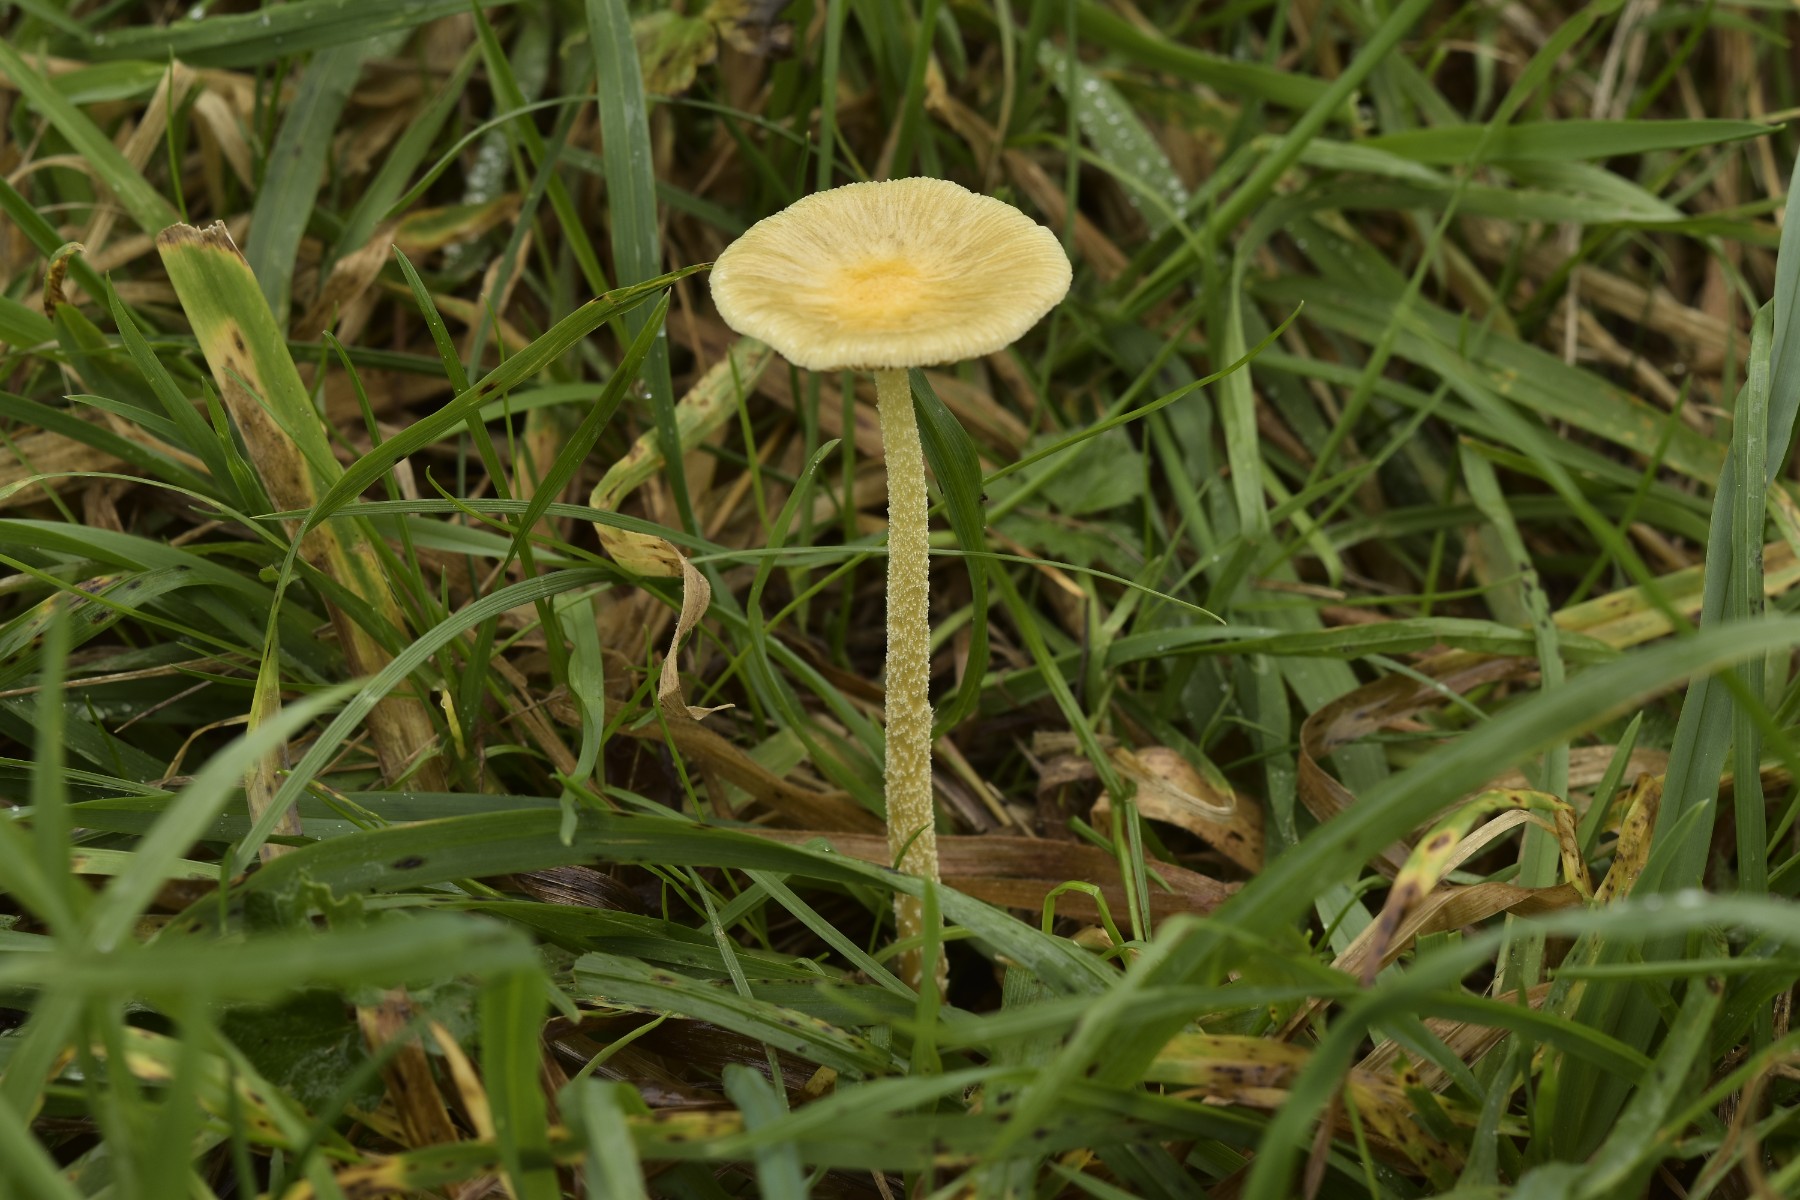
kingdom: Fungi
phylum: Basidiomycota
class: Agaricomycetes
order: Agaricales
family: Bolbitiaceae
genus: Bolbitius
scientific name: Bolbitius titubans
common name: almindelig gulhat
